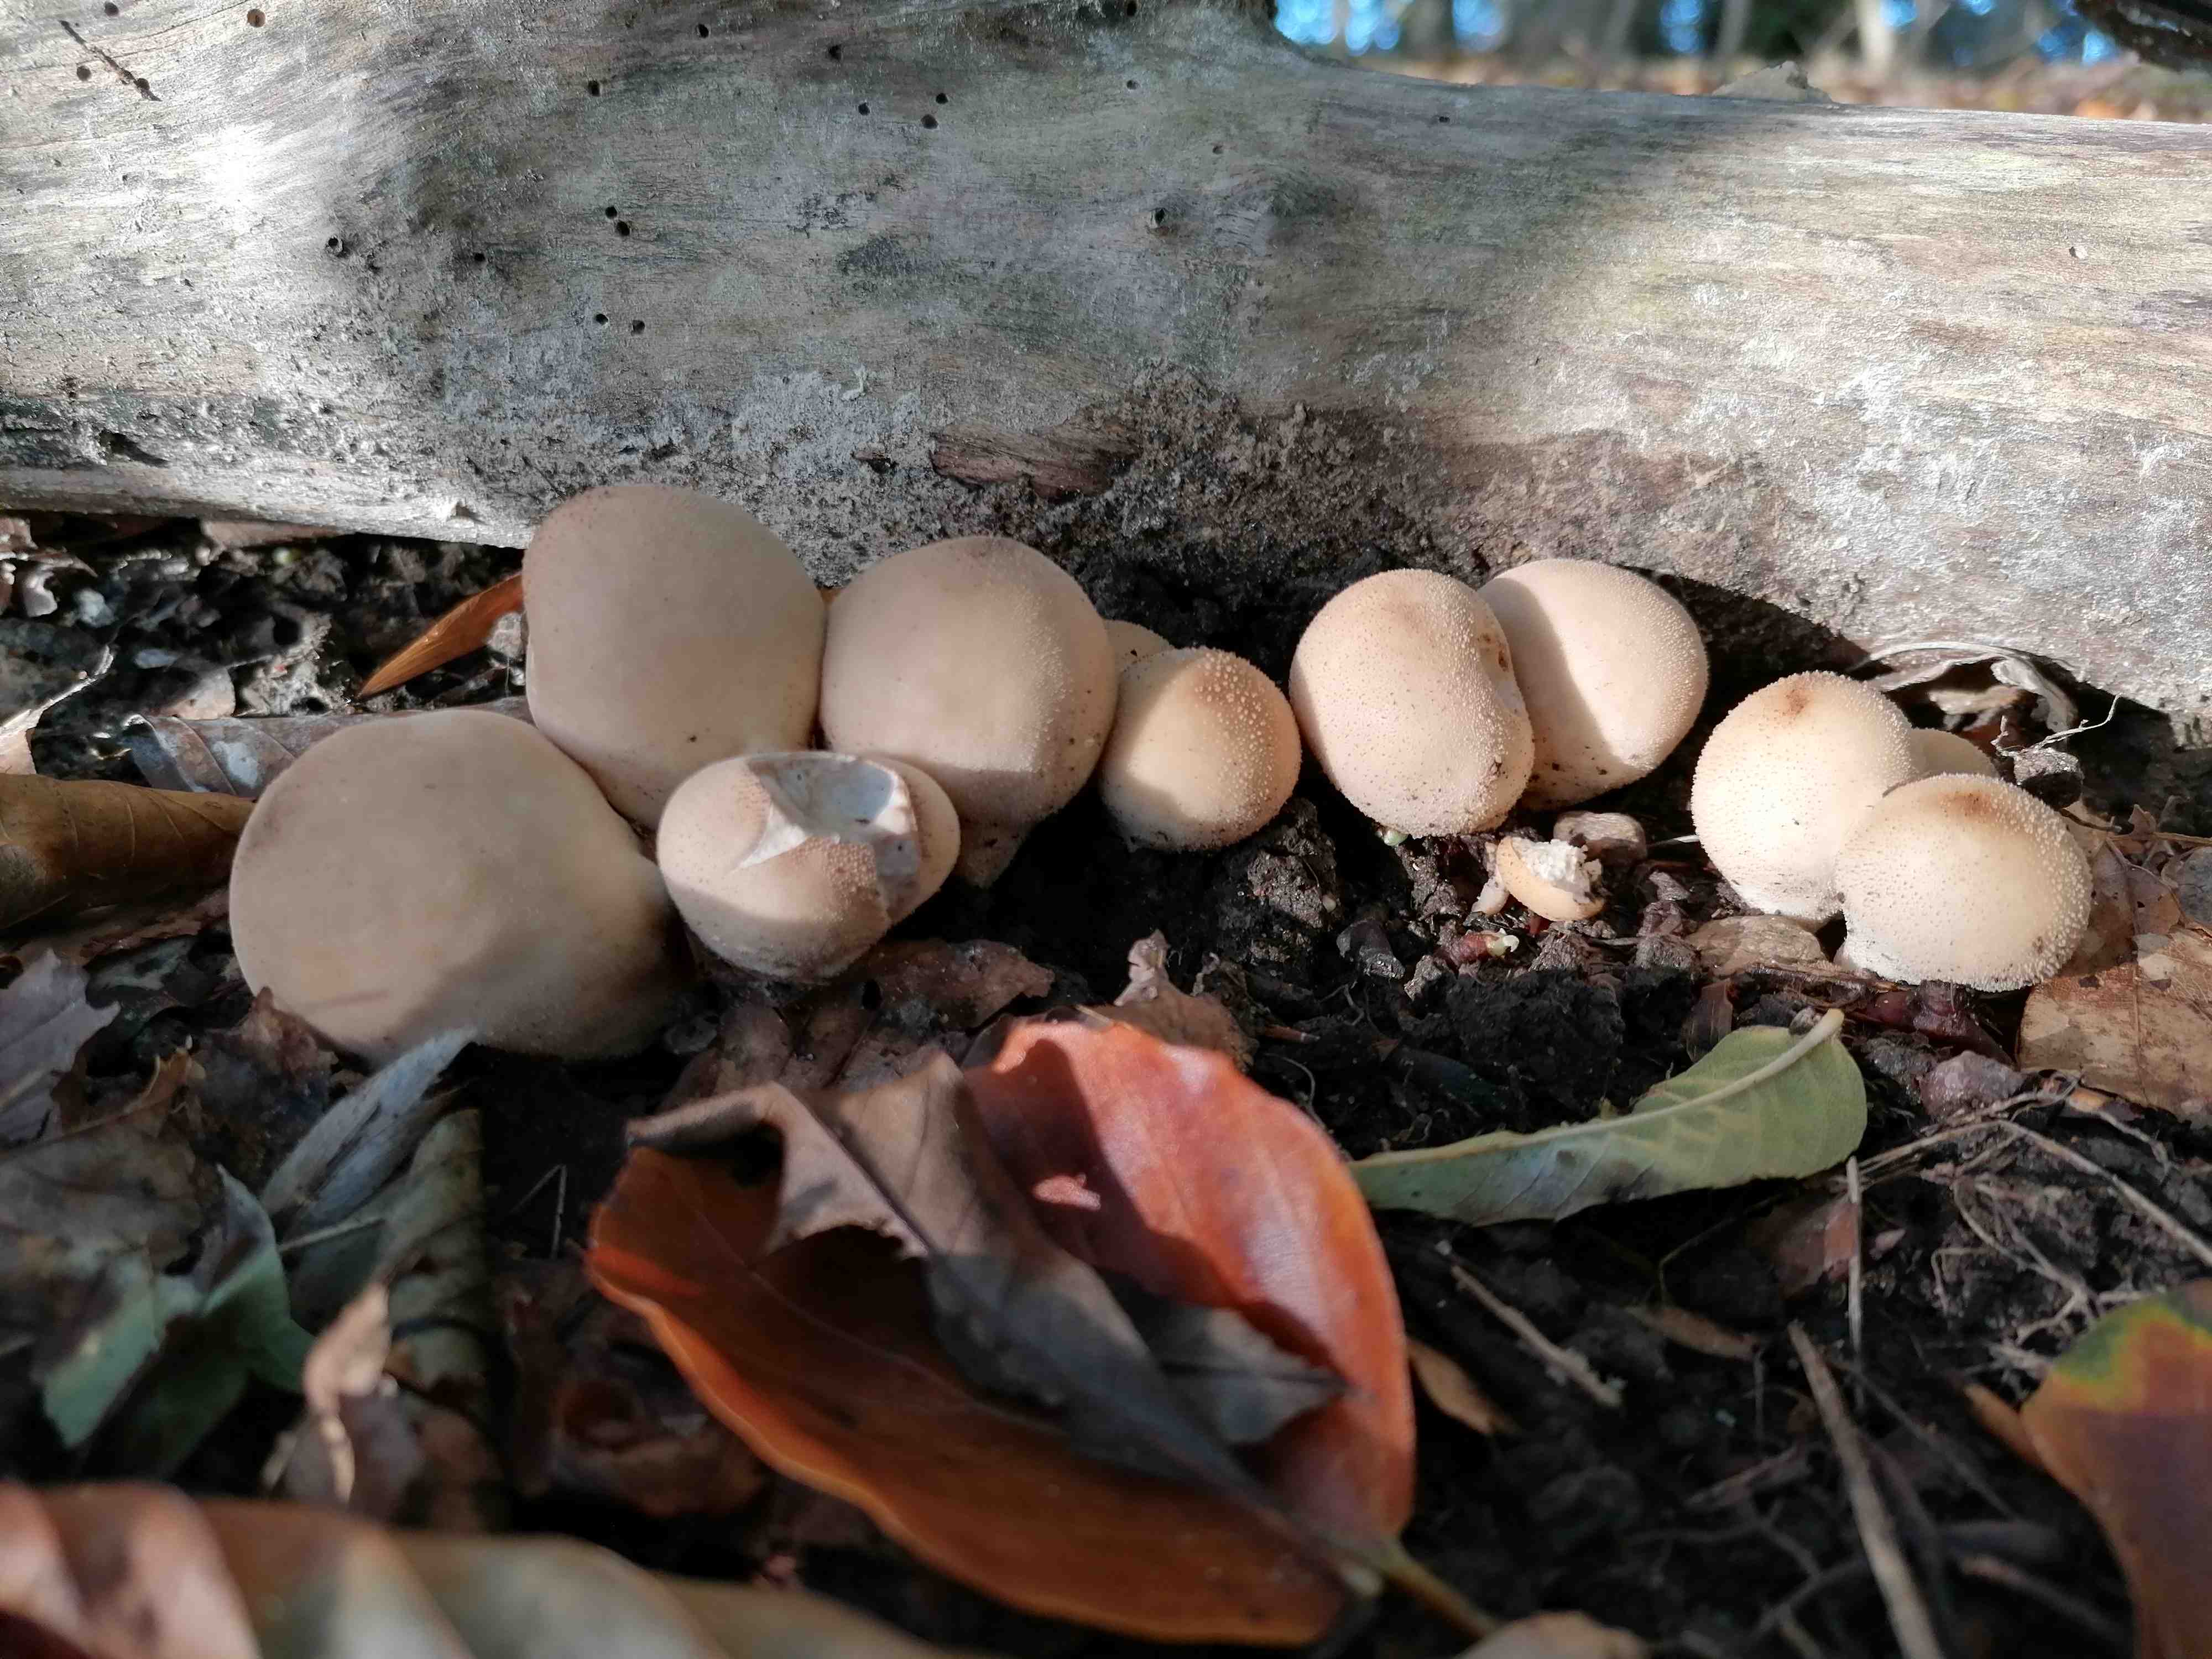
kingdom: Fungi
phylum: Basidiomycota
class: Agaricomycetes
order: Agaricales
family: Lycoperdaceae
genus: Apioperdon
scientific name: Apioperdon pyriforme
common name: pære-støvbold
